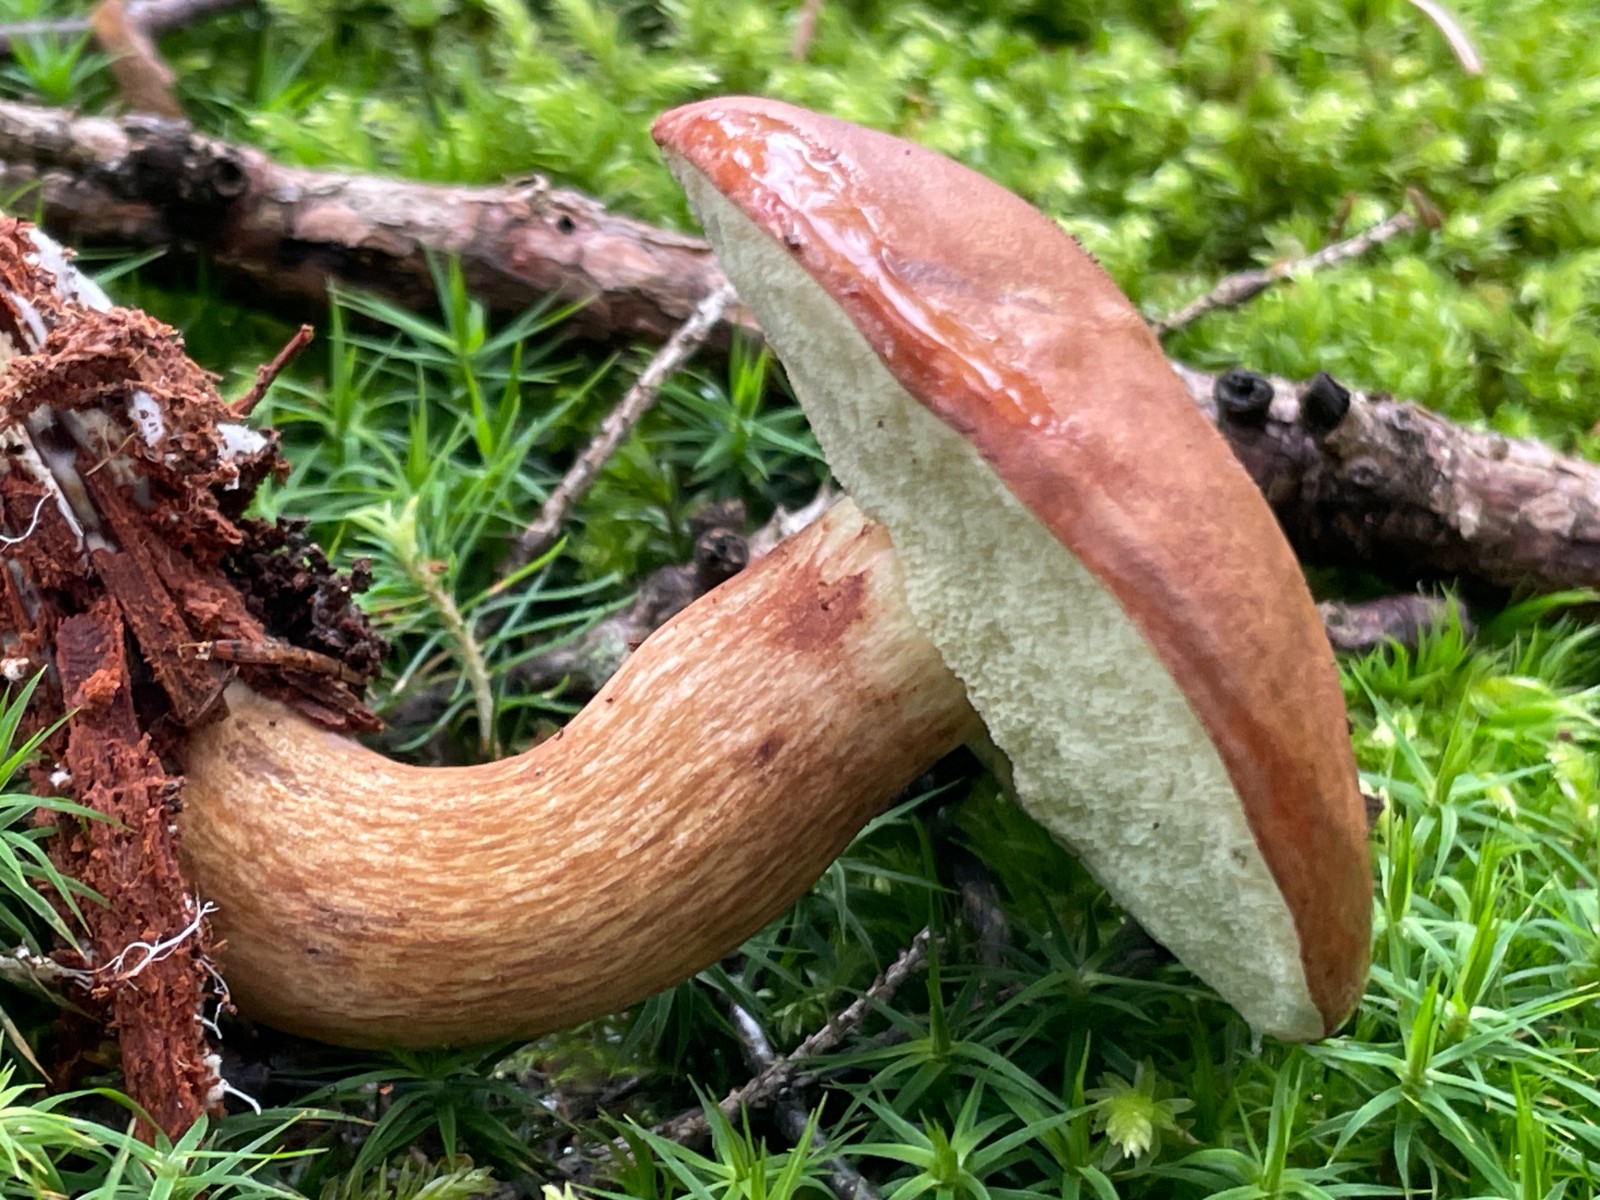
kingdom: Fungi
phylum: Basidiomycota
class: Agaricomycetes
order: Boletales
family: Boletaceae
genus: Imleria
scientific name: Imleria badia
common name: brunstokket rørhat
